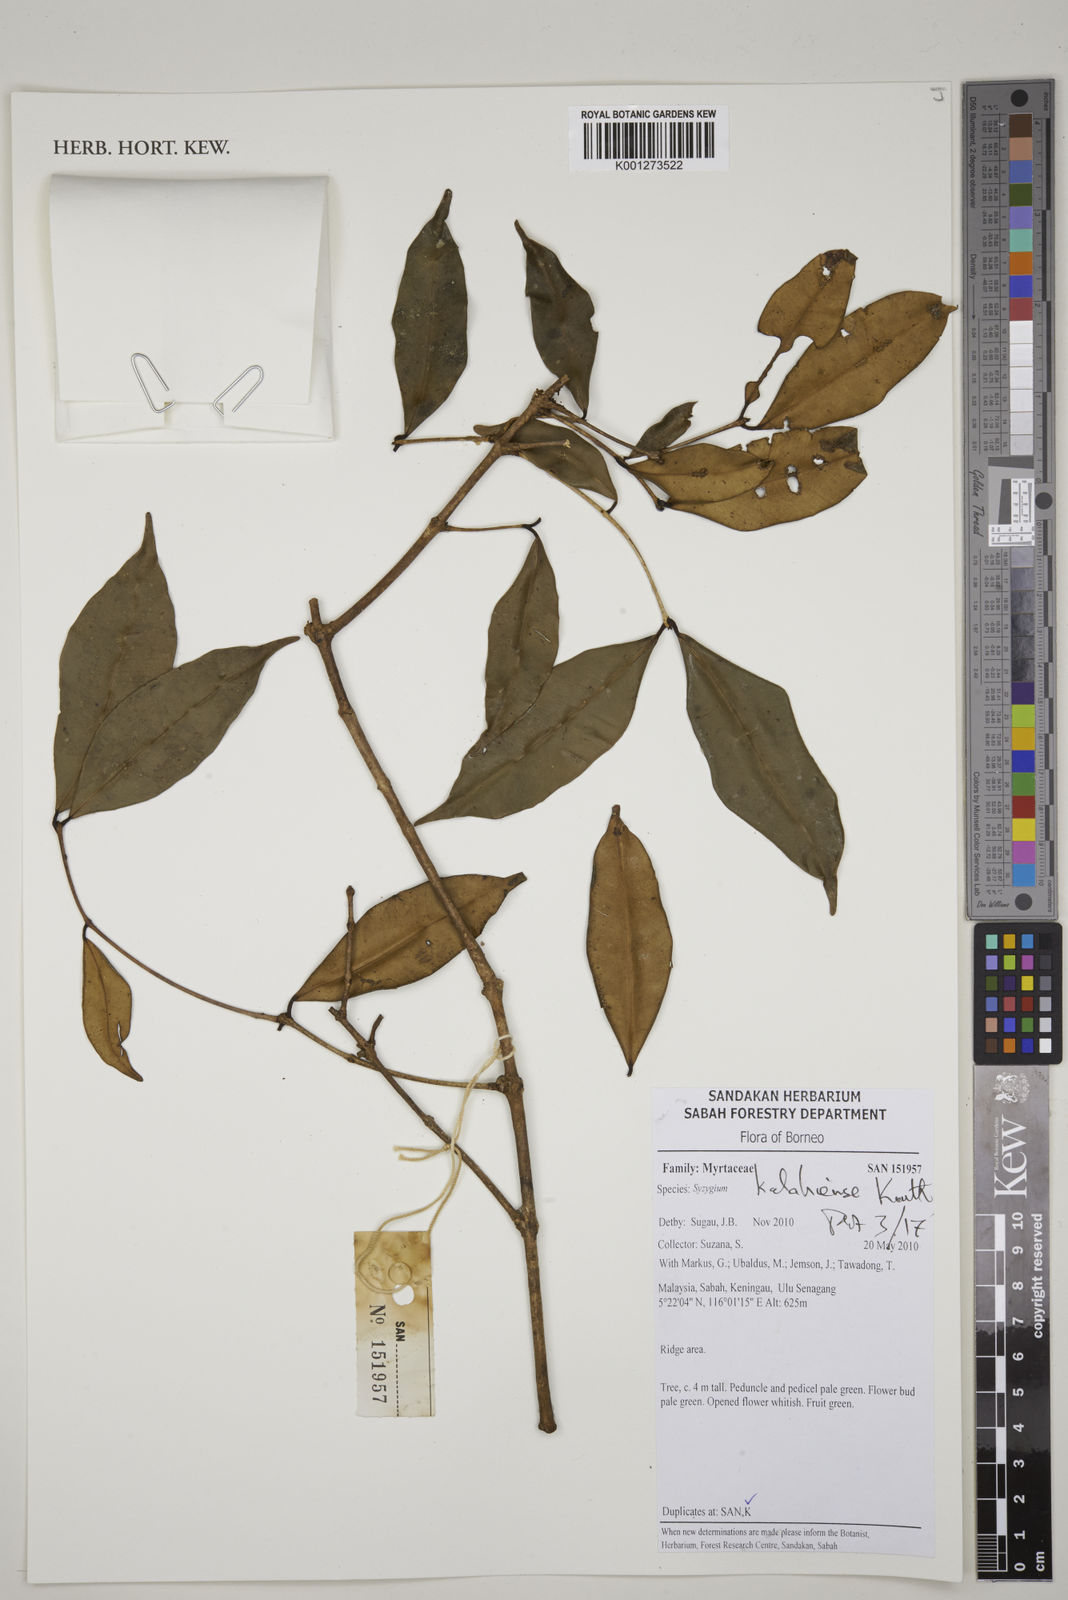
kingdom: Plantae
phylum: Tracheophyta
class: Magnoliopsida
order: Myrtales
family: Myrtaceae
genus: Syzygium
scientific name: Syzygium kalahiense
